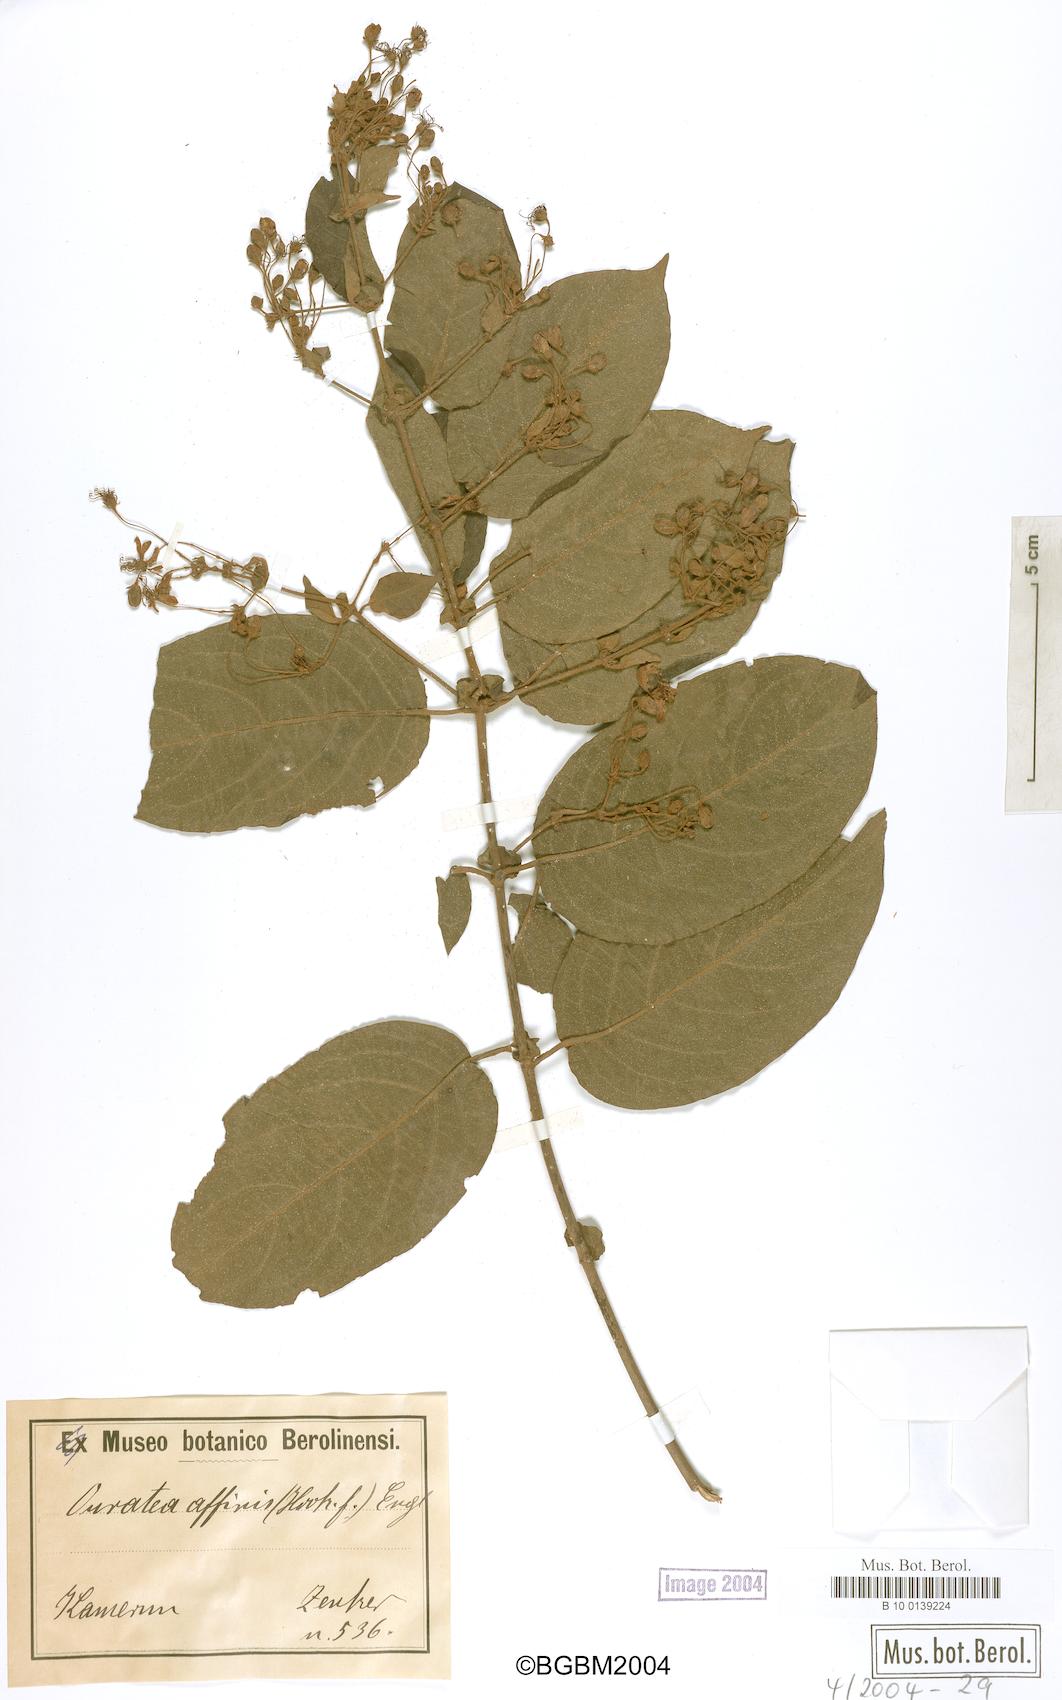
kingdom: Plantae
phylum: Tracheophyta
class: Magnoliopsida
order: Malpighiales
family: Ochnaceae
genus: Rhabdophyllum
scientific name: Rhabdophyllum affine
